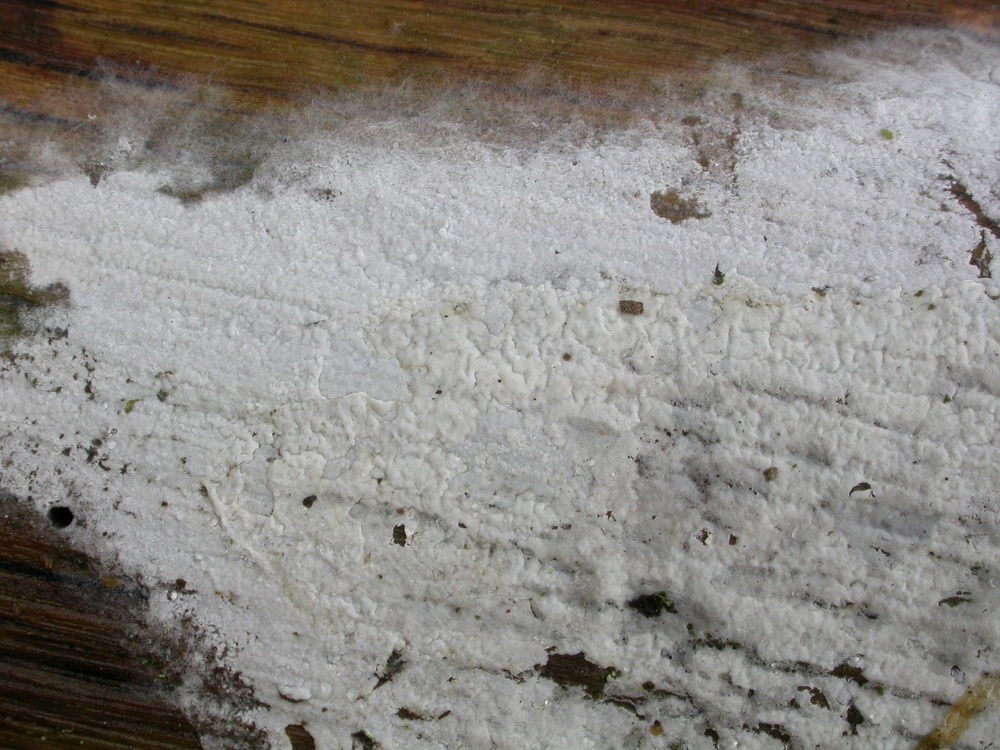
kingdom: Fungi
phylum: Basidiomycota
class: Agaricomycetes
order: Atheliales
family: Atheliaceae
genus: Athelia
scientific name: Athelia epiphylla
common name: almindelig barkhinde
